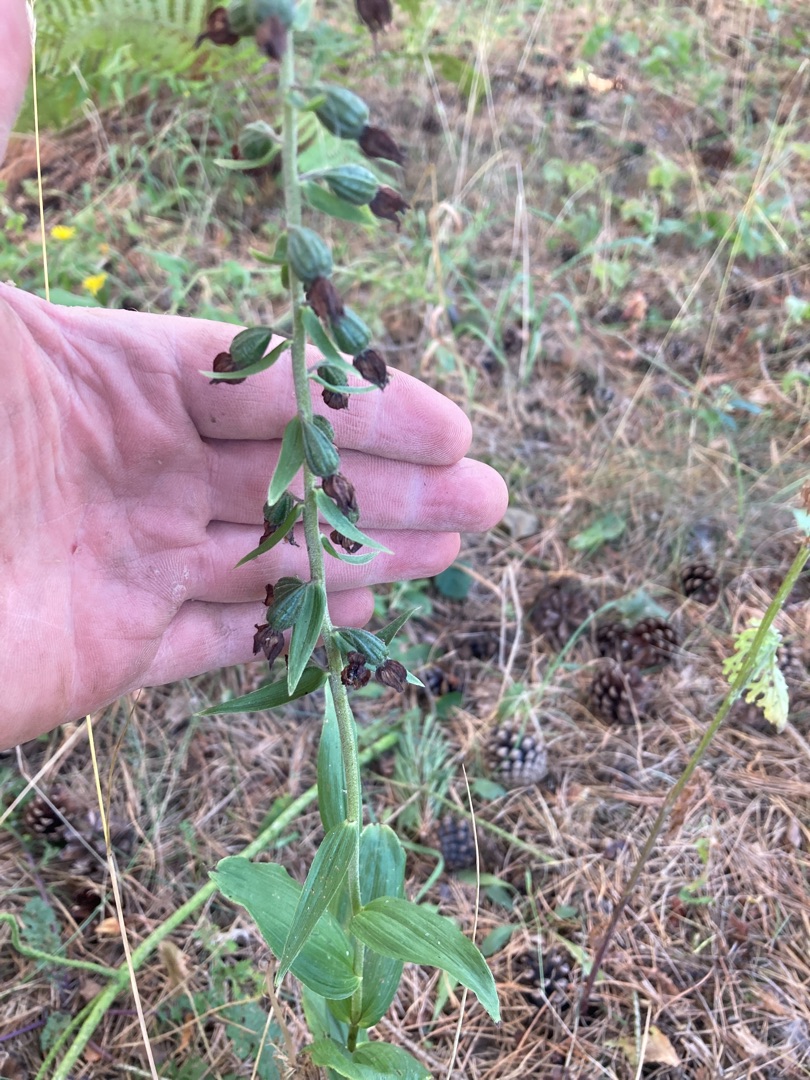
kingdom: Plantae
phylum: Tracheophyta
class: Liliopsida
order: Asparagales
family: Orchidaceae
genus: Epipactis
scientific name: Epipactis helleborine
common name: Skov-hullæbe
